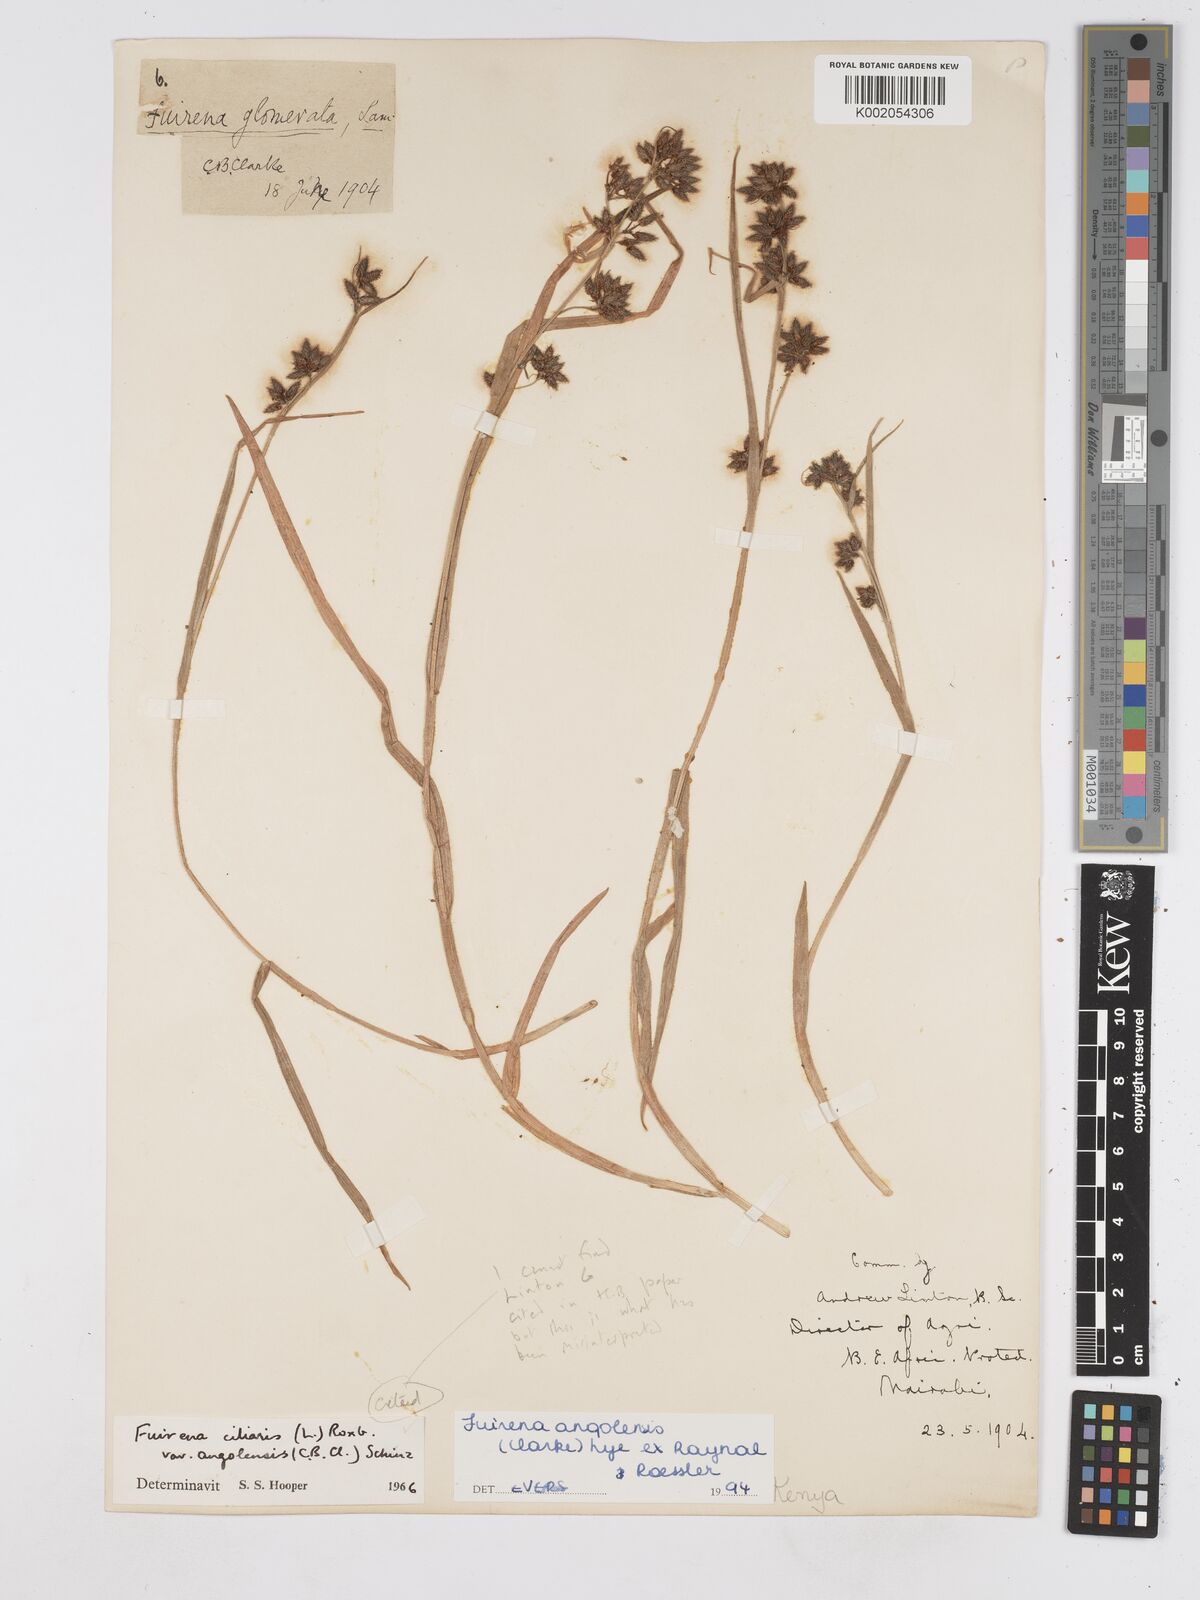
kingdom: Plantae
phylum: Tracheophyta
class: Liliopsida
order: Poales
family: Cyperaceae
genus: Fuirena
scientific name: Fuirena angolensis
